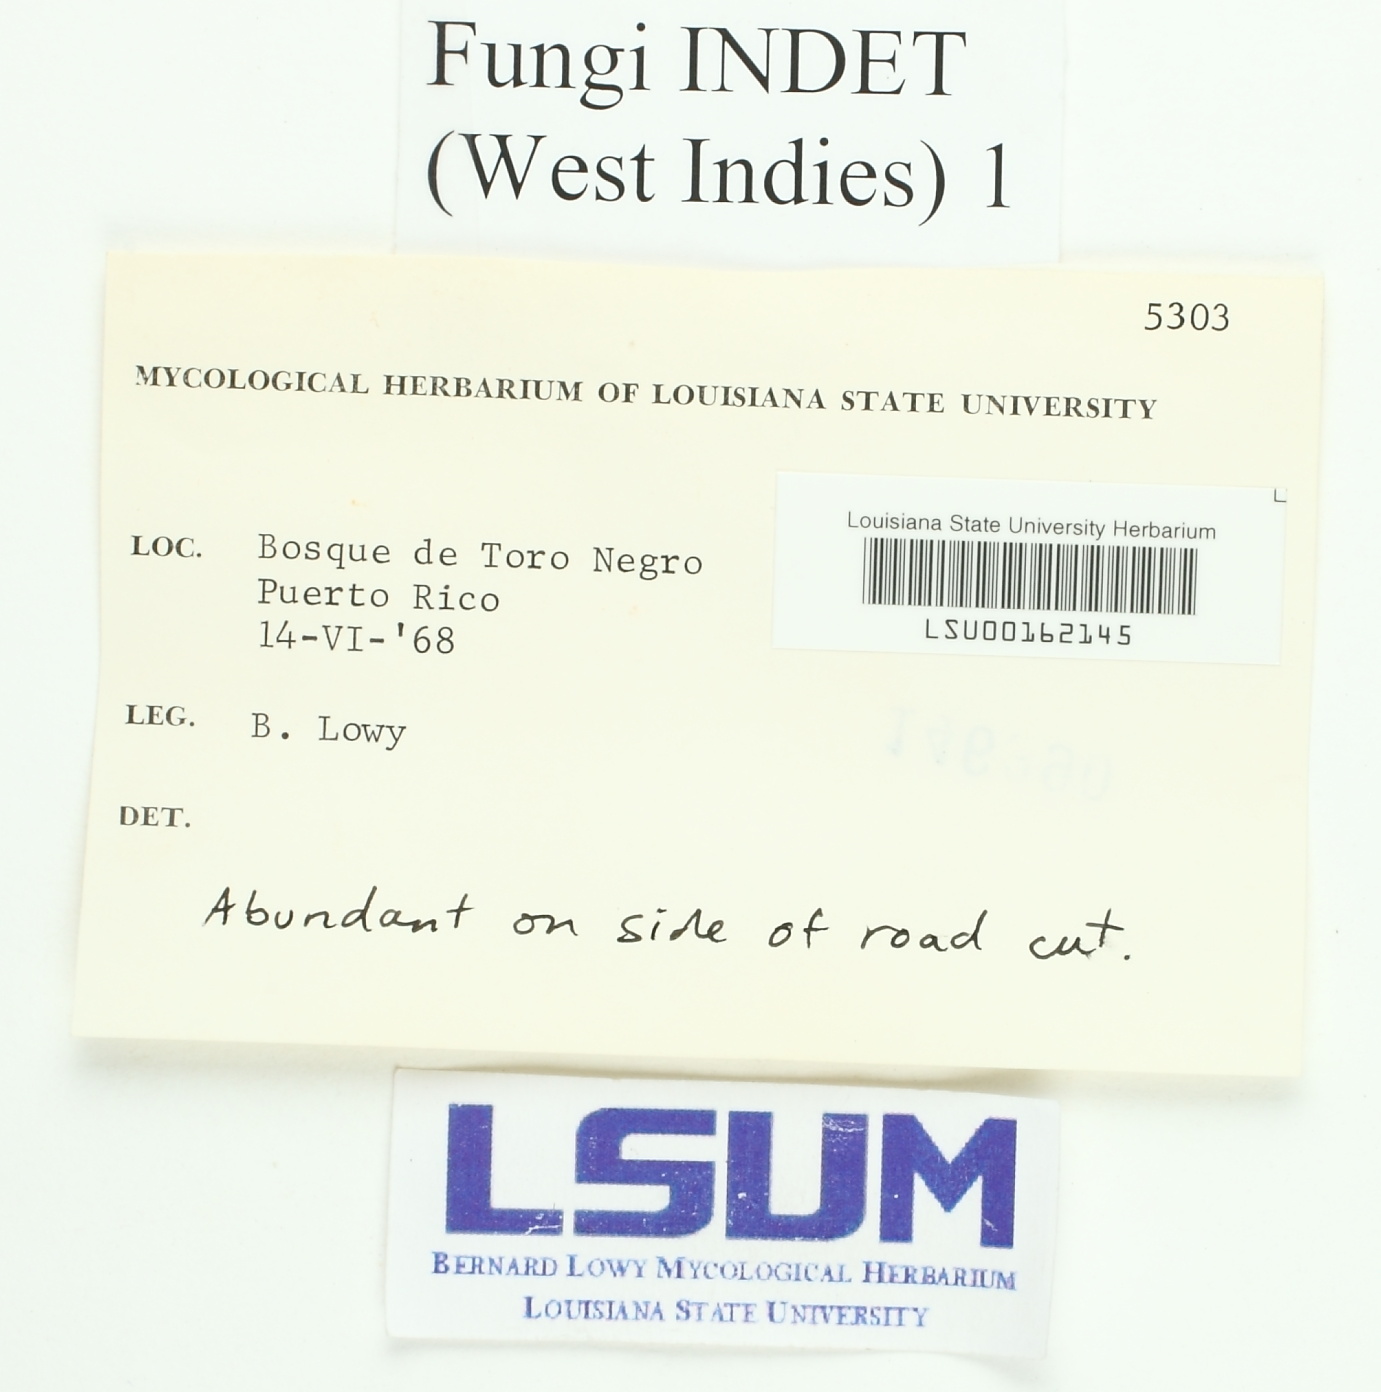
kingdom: Fungi
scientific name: Fungi
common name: Fungi
